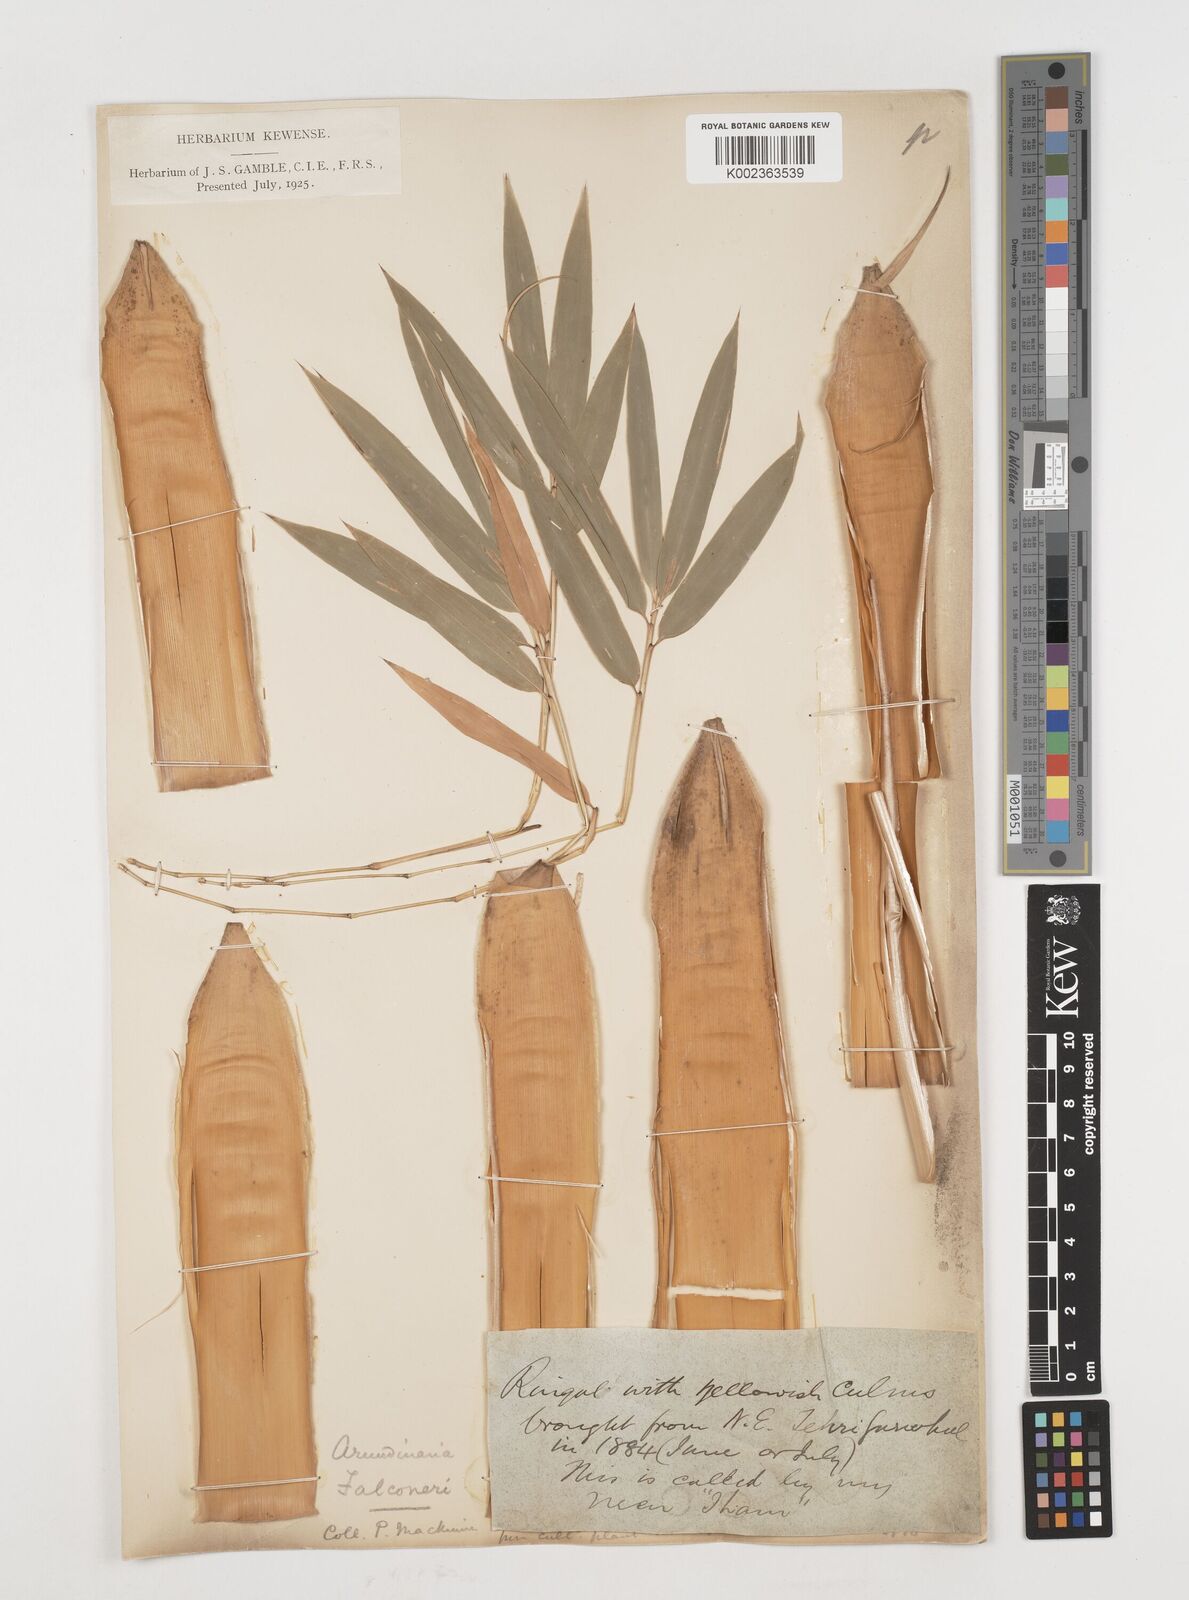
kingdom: Plantae
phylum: Tracheophyta
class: Liliopsida
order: Poales
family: Poaceae
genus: Himalayacalamus
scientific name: Himalayacalamus falconeri
